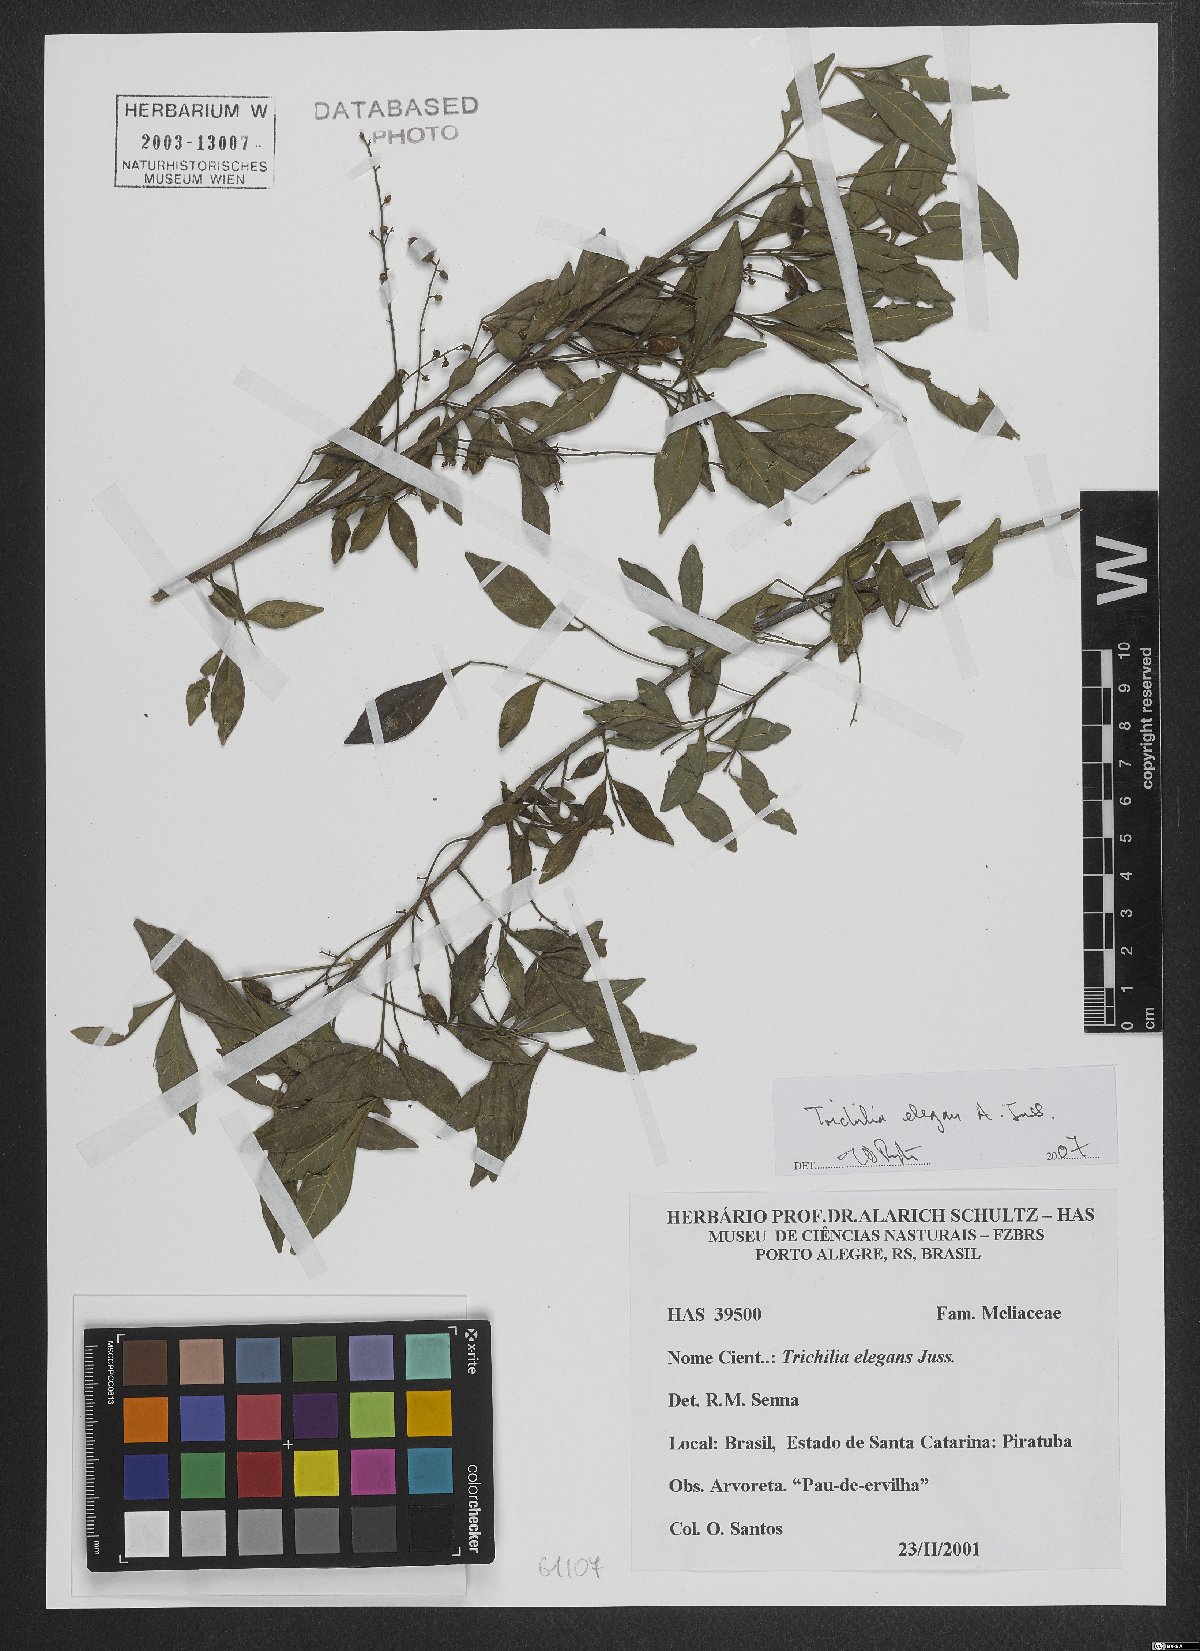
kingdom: Plantae
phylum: Tracheophyta
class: Magnoliopsida
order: Sapindales
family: Meliaceae
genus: Trichilia
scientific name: Trichilia elegans
